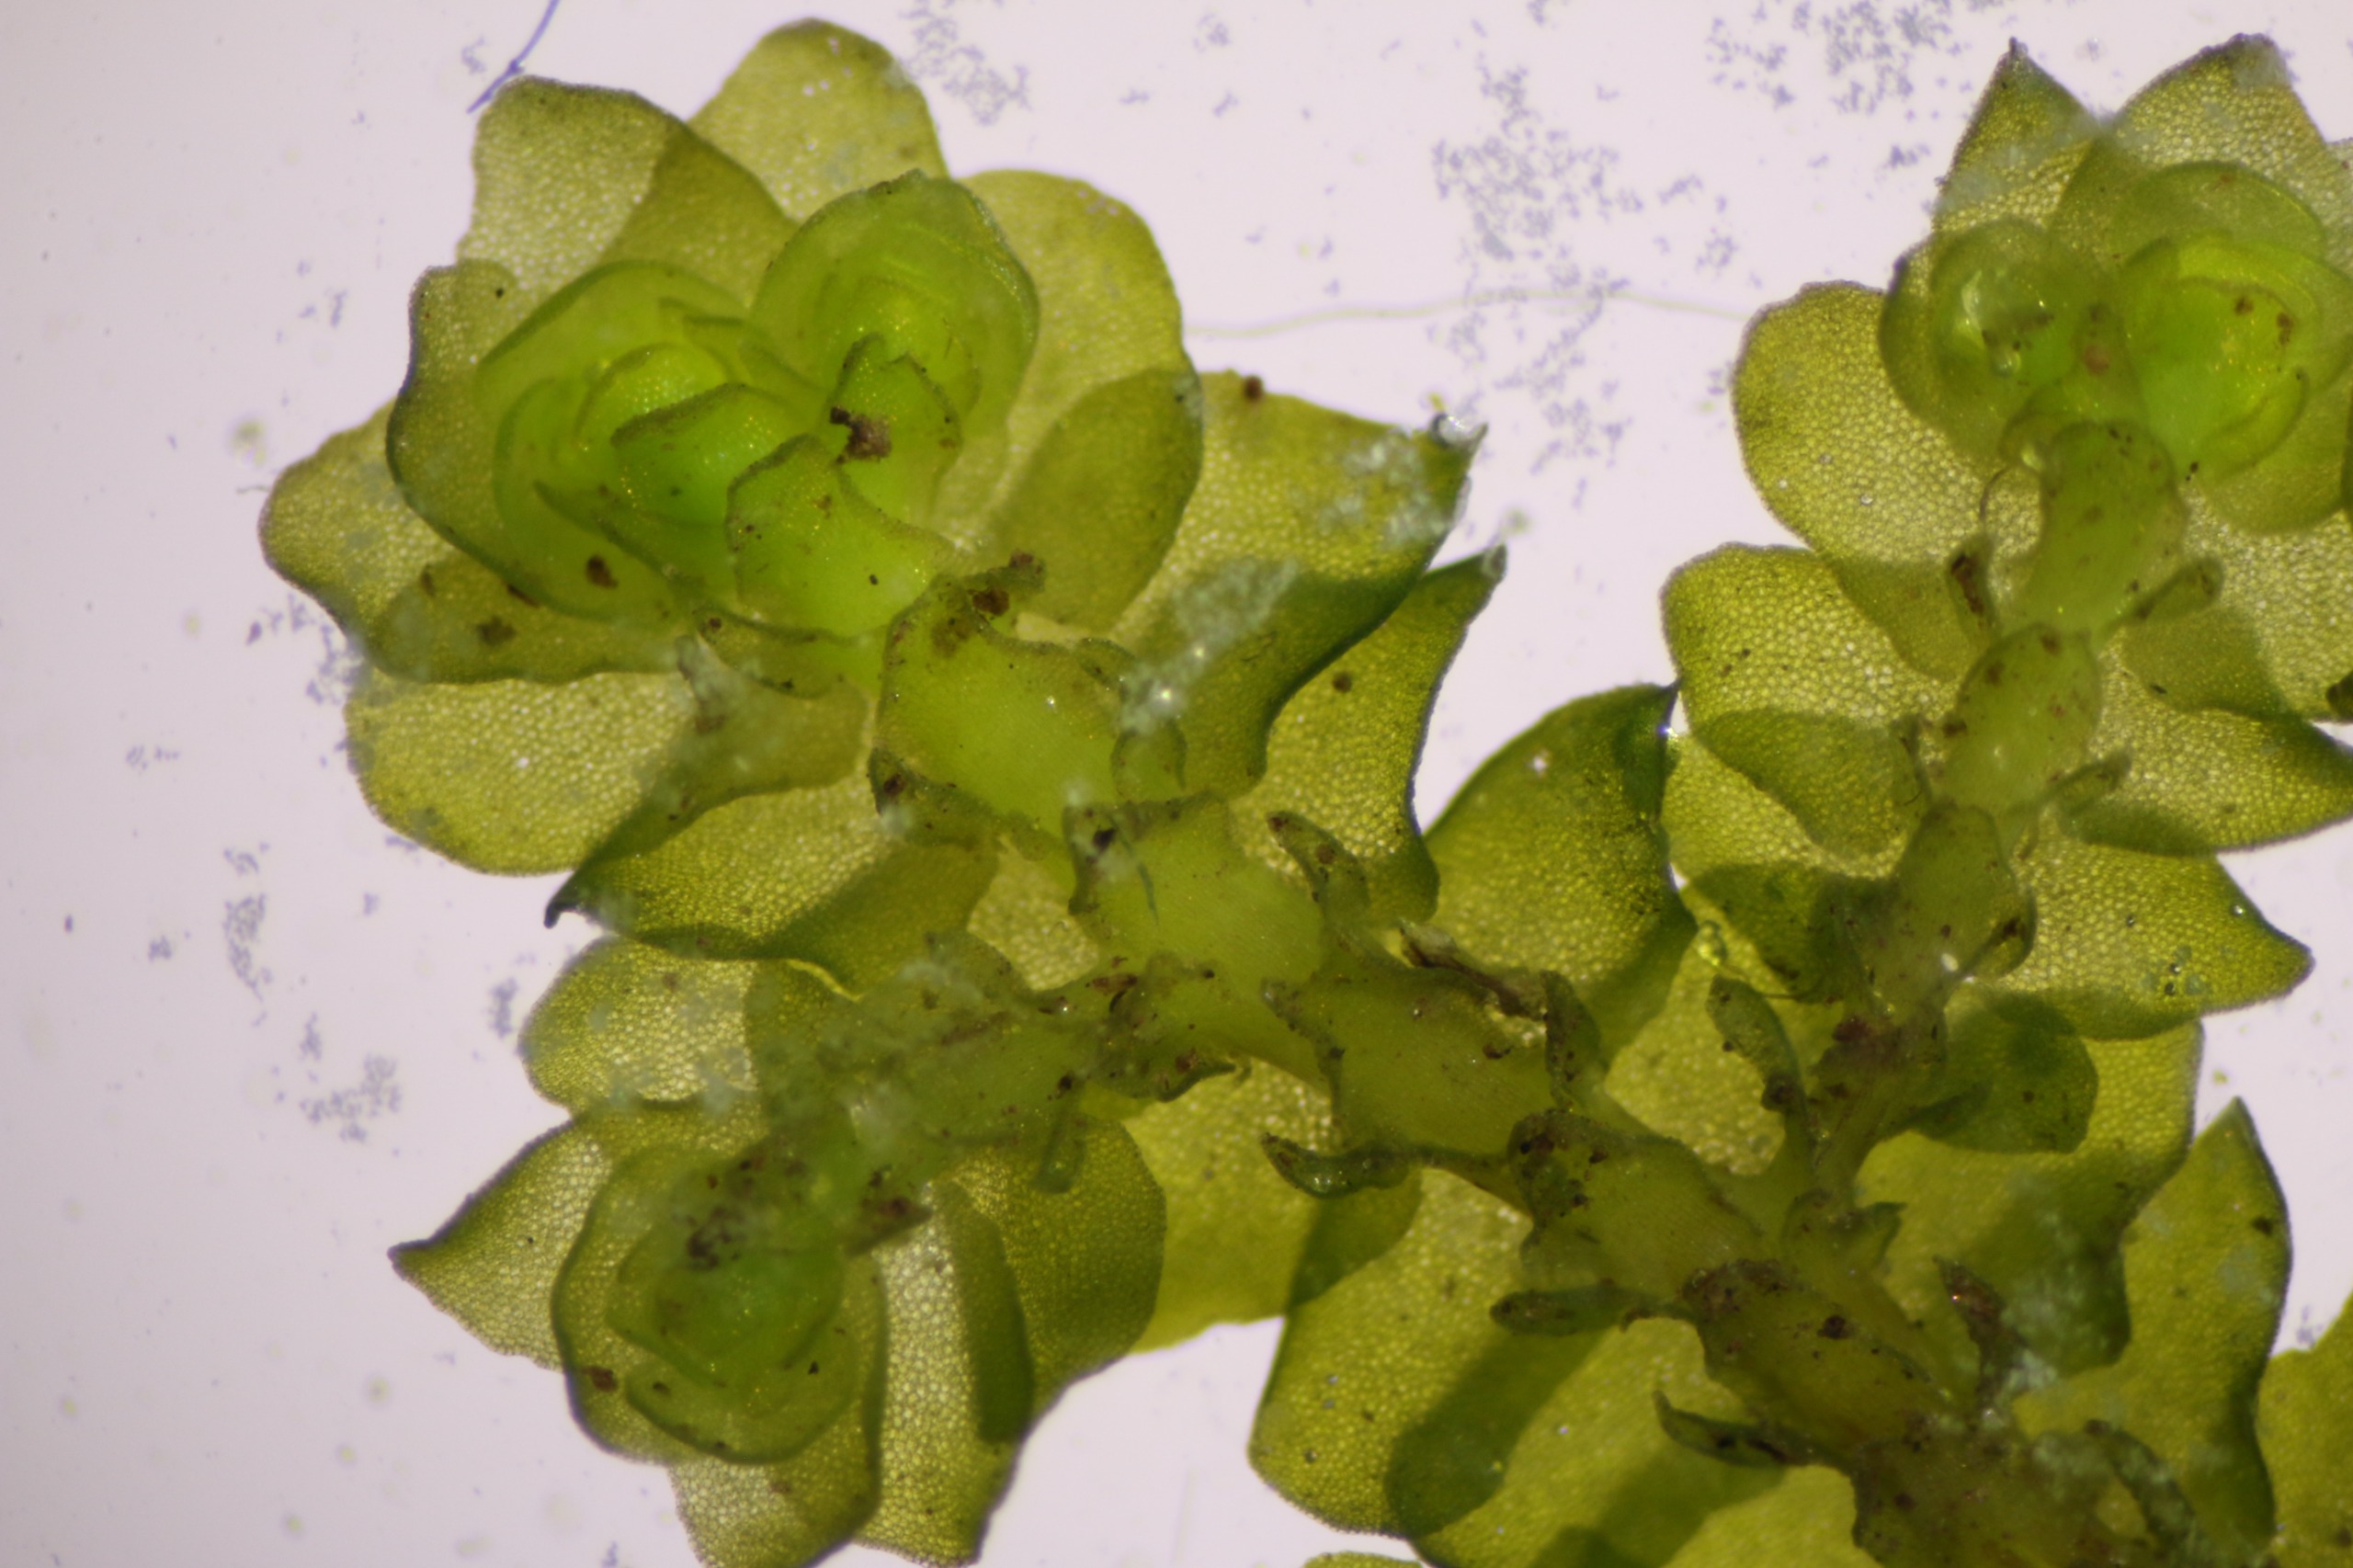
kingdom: Plantae
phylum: Marchantiophyta
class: Jungermanniopsida
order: Porellales
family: Porellaceae
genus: Porella
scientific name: Porella cordaeana
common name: Bæk-skælryg
